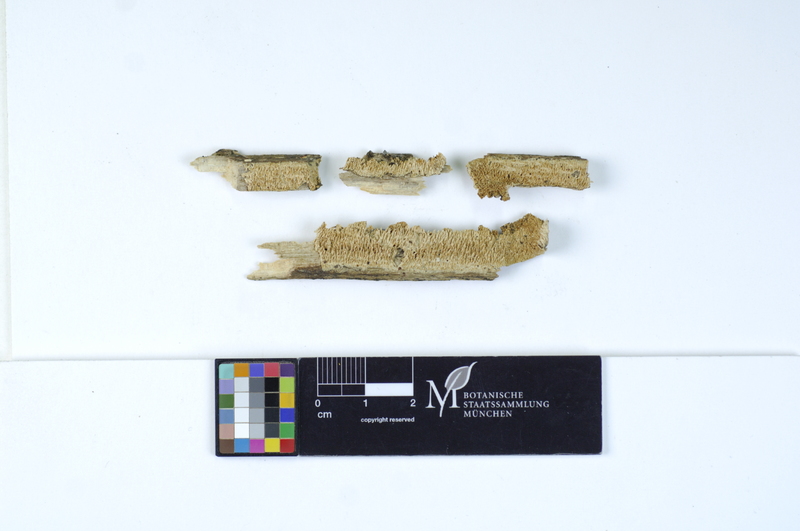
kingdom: Plantae
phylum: Tracheophyta
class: Magnoliopsida
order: Fagales
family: Fagaceae
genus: Fagus
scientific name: Fagus sylvatica
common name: Beech
